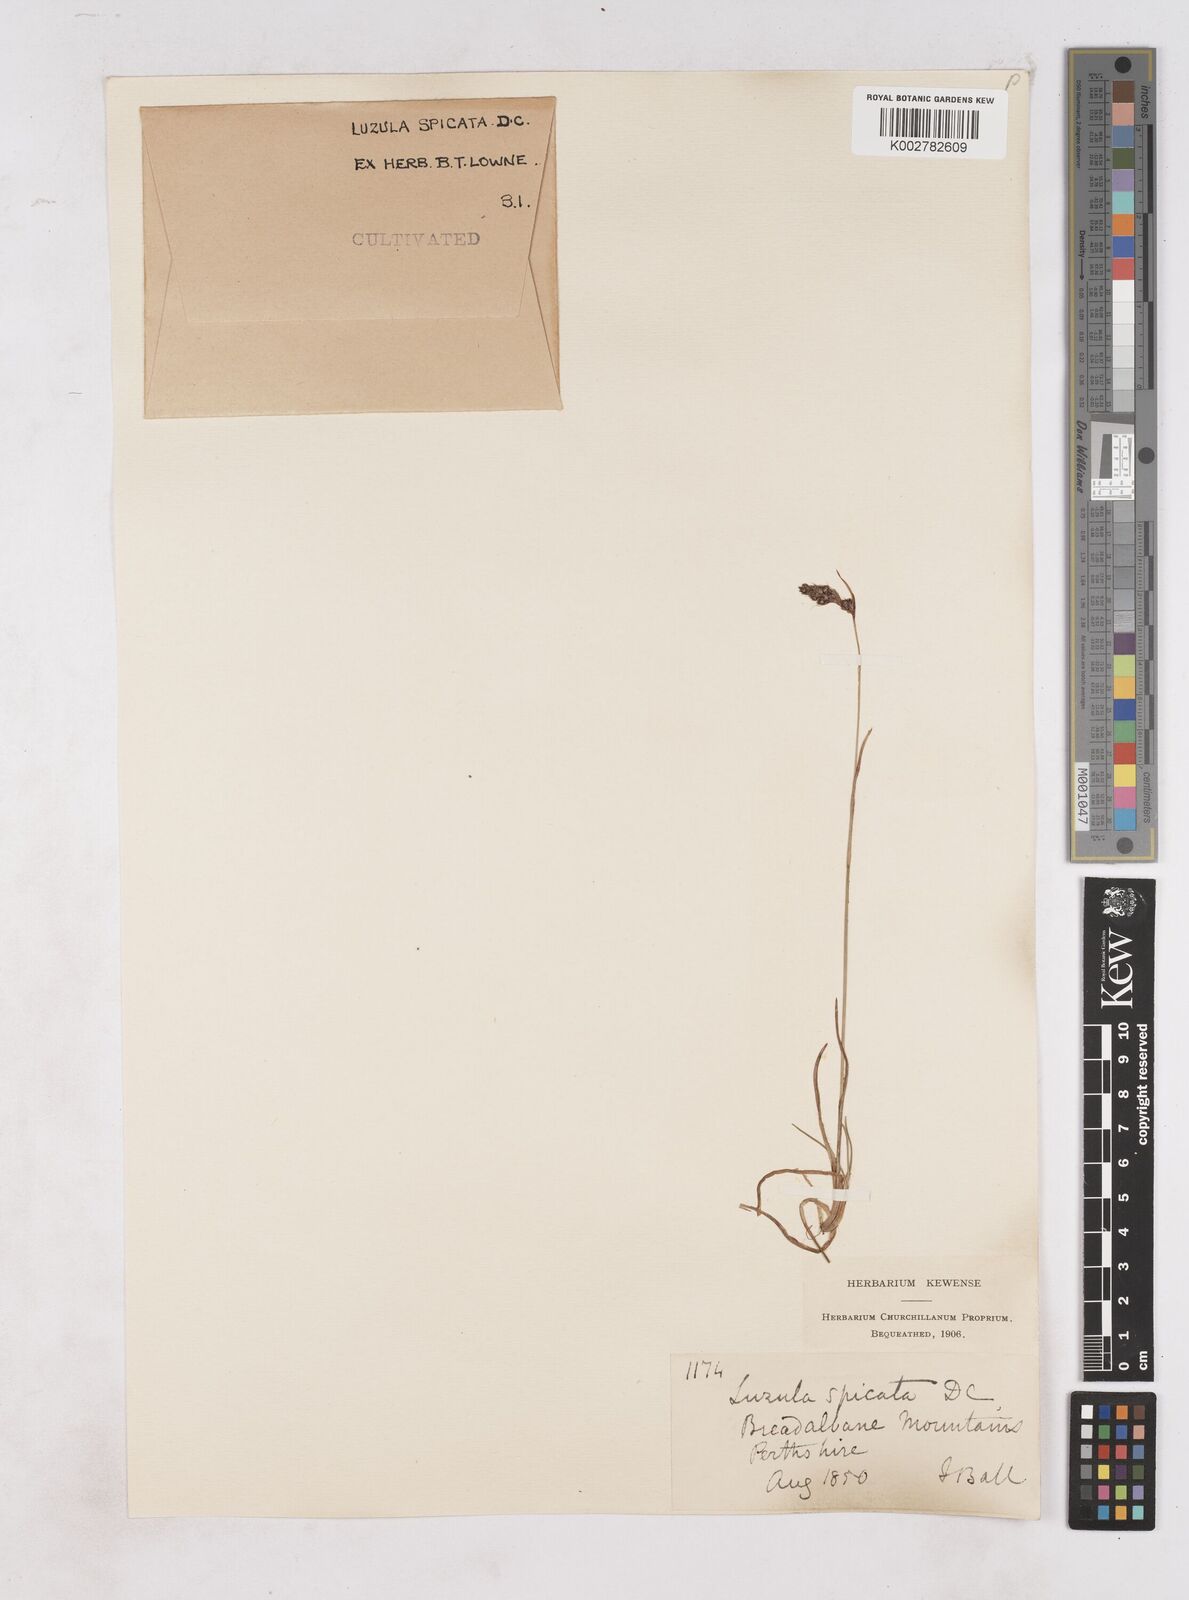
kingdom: Plantae
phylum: Tracheophyta
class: Liliopsida
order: Poales
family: Juncaceae
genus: Luzula
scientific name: Luzula spicata
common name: Spiked wood-rush
